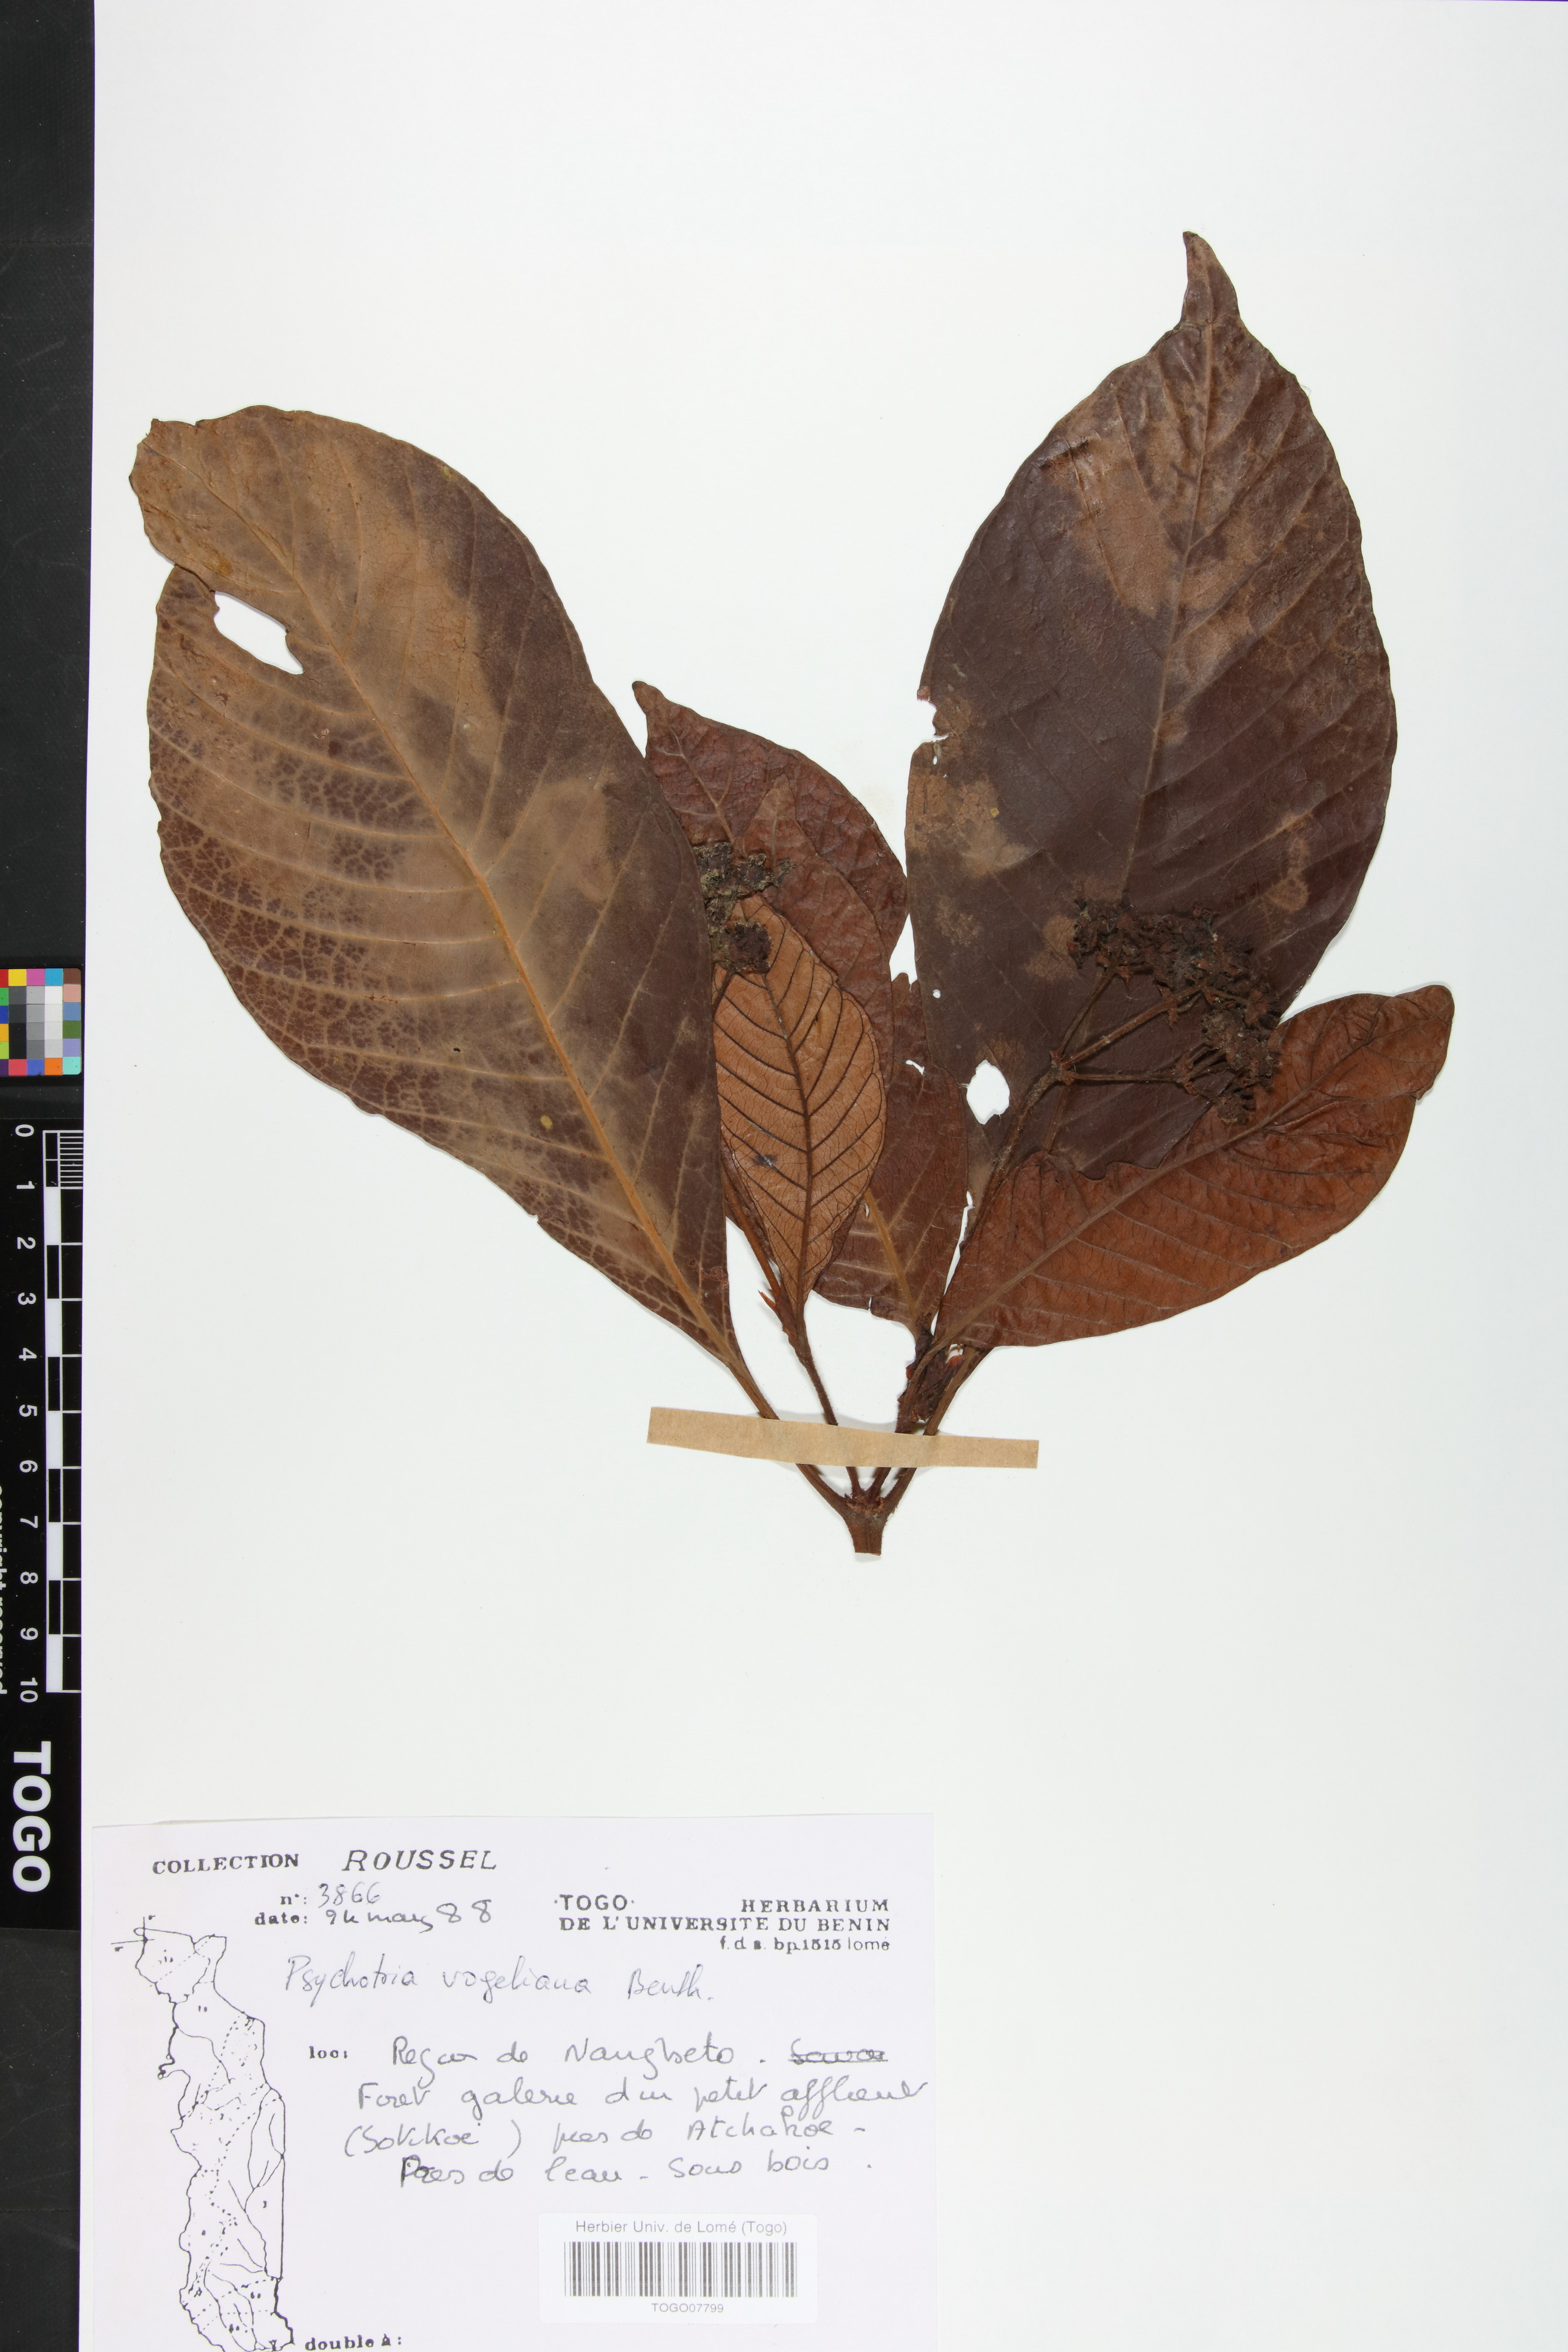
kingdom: Plantae
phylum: Tracheophyta
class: Magnoliopsida
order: Gentianales
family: Rubiaceae
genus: Psychotria
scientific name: Psychotria vogeliana
